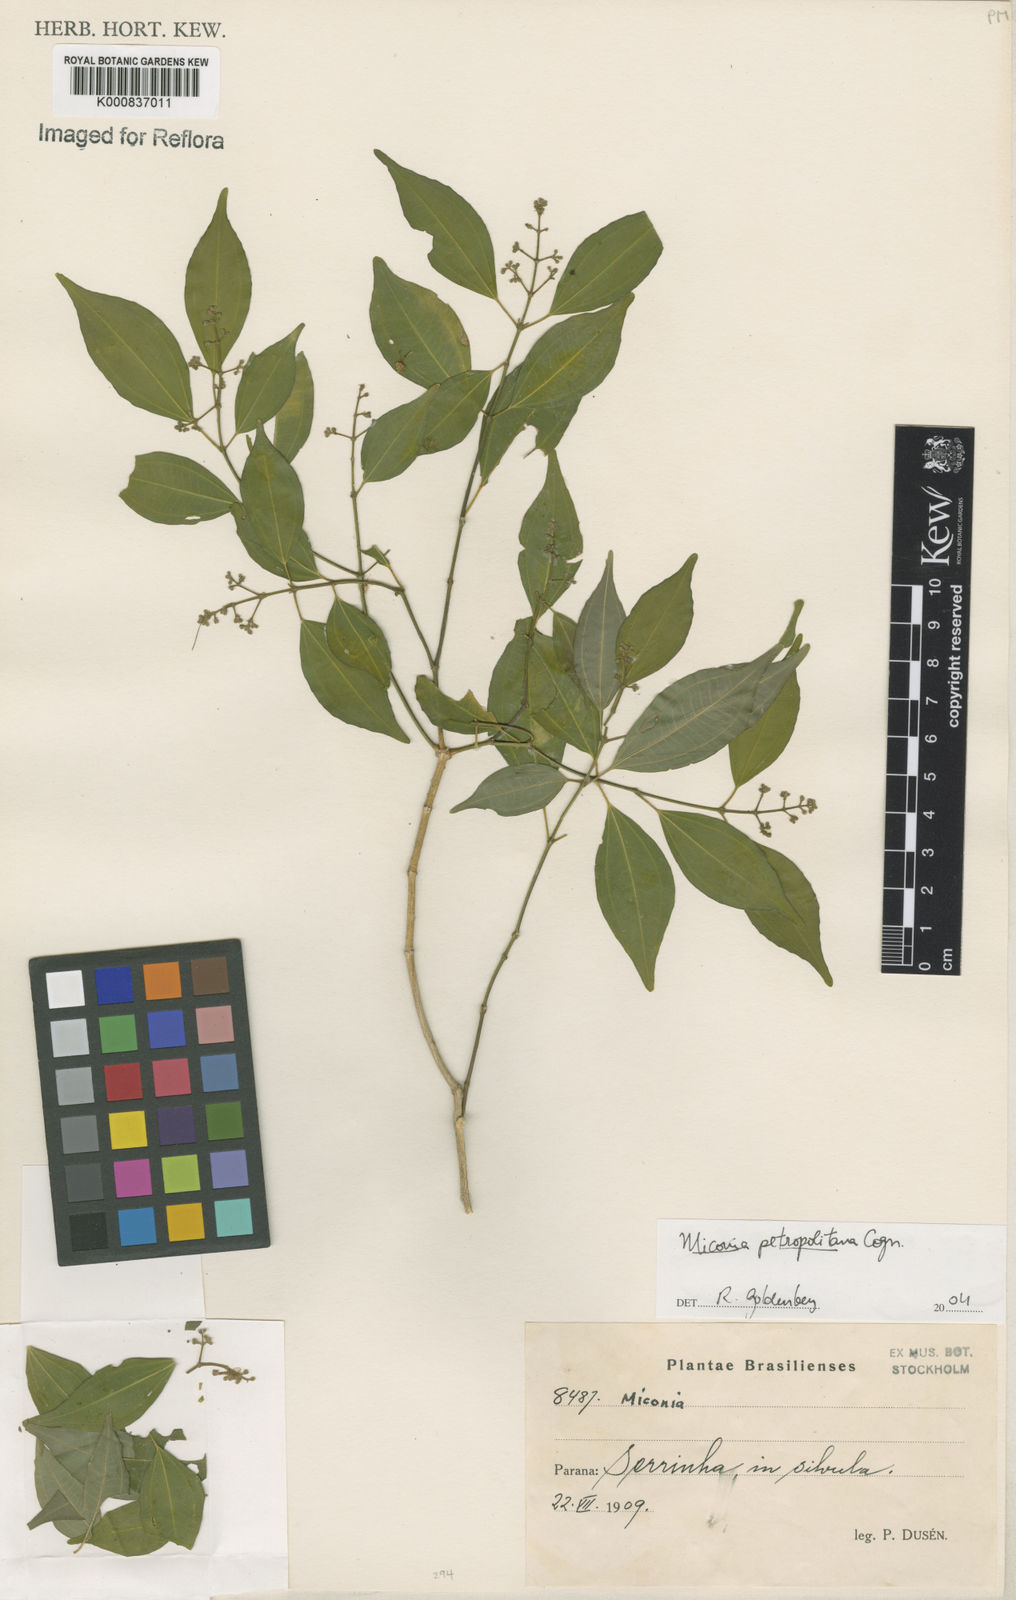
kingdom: Plantae
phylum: Tracheophyta
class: Magnoliopsida
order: Myrtales
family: Melastomataceae
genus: Miconia
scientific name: Miconia petropolitana
